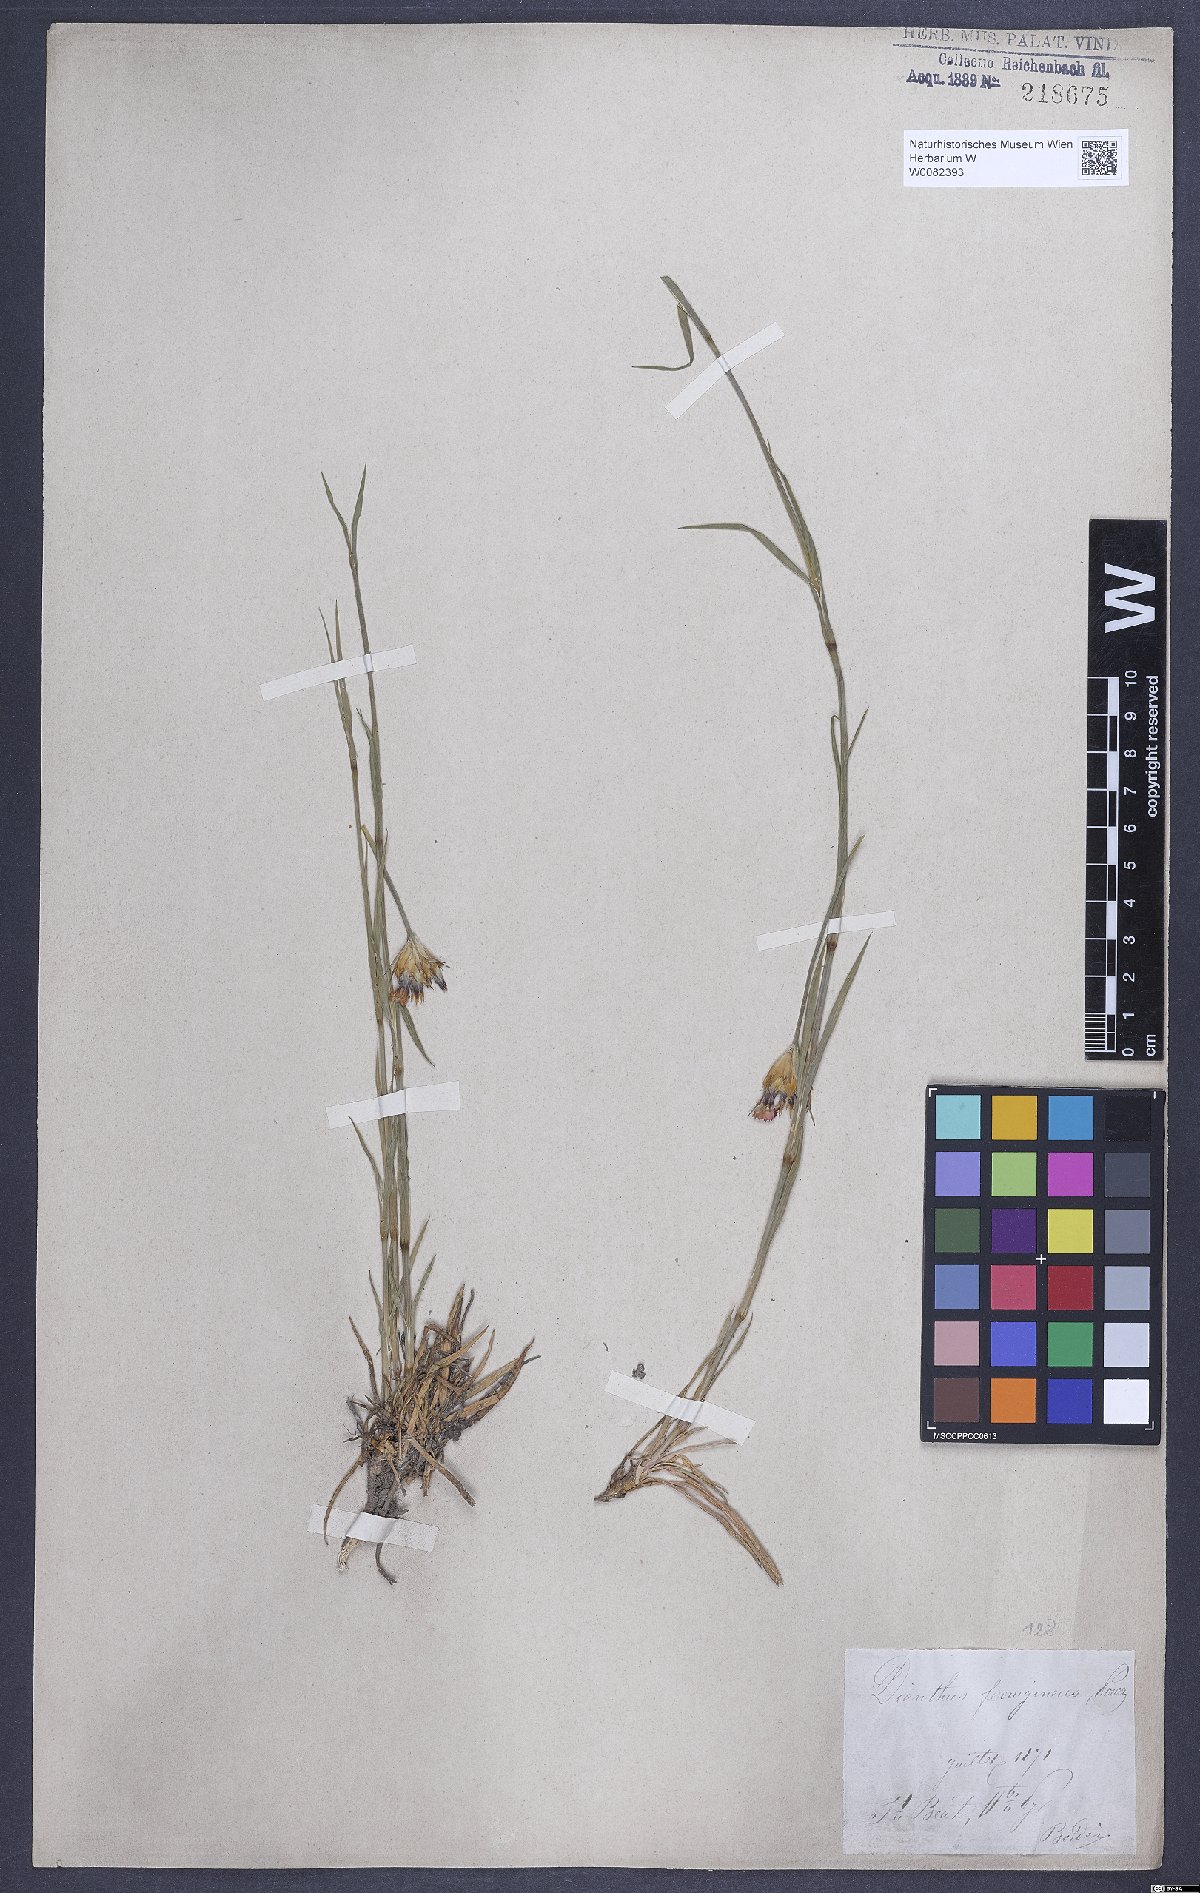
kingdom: Plantae
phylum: Tracheophyta
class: Magnoliopsida
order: Caryophyllales
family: Caryophyllaceae
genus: Dianthus
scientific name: Dianthus carthusianorum
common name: Carthusian pink
